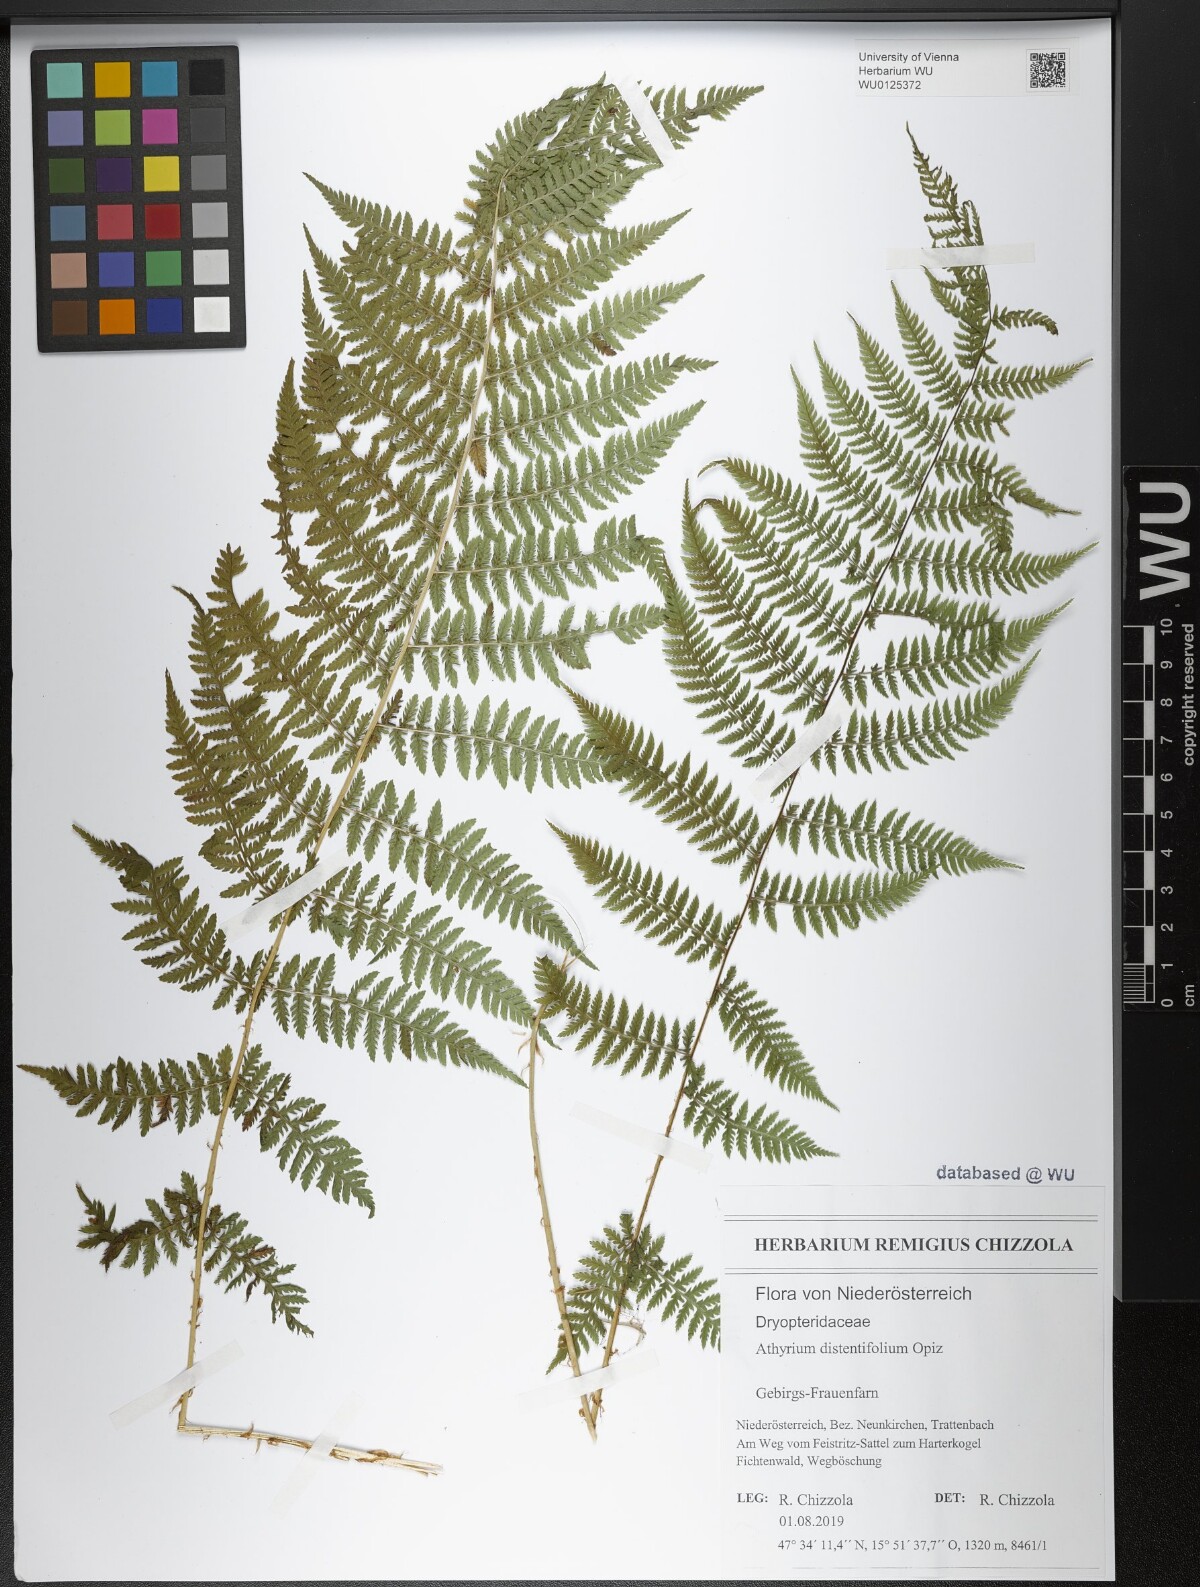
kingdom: Plantae
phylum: Tracheophyta
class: Polypodiopsida
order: Polypodiales
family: Athyriaceae
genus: Pseudathyrium
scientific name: Pseudathyrium alpestre
